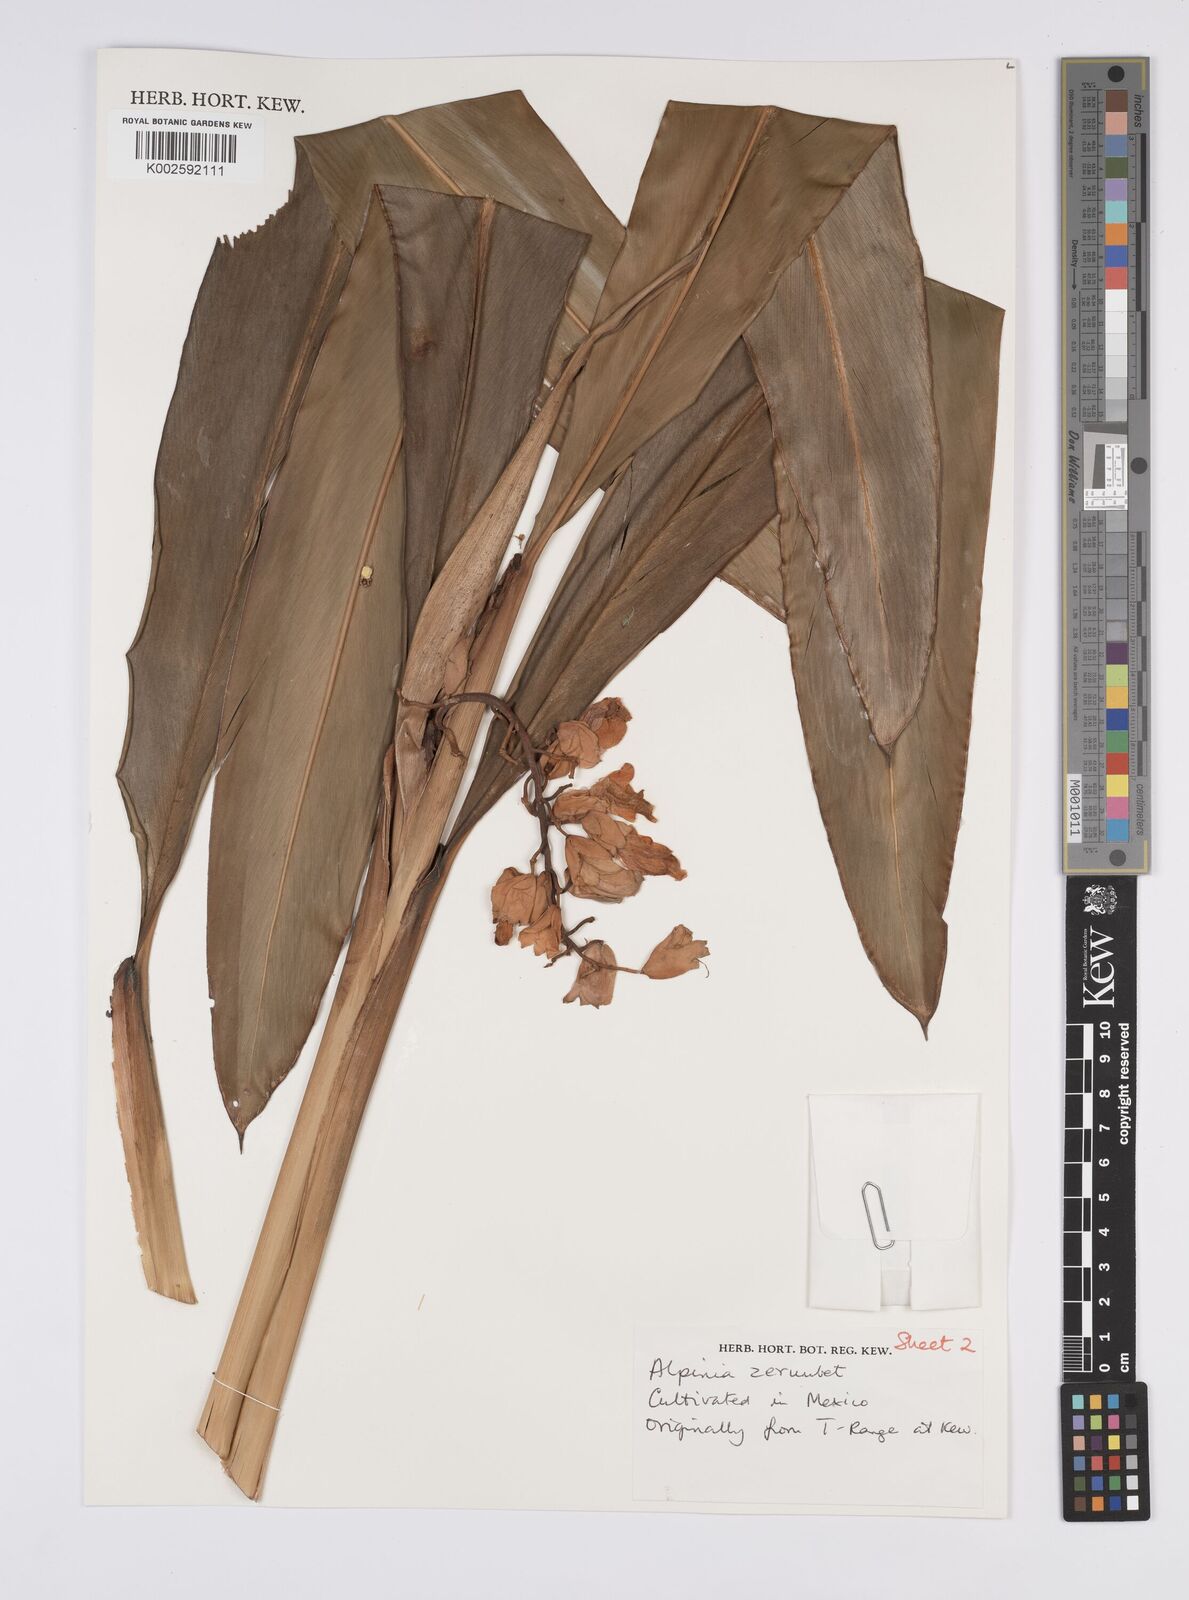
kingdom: Plantae
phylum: Tracheophyta
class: Liliopsida
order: Zingiberales
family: Zingiberaceae
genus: Alpinia
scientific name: Alpinia zerumbet
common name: Shellplant
